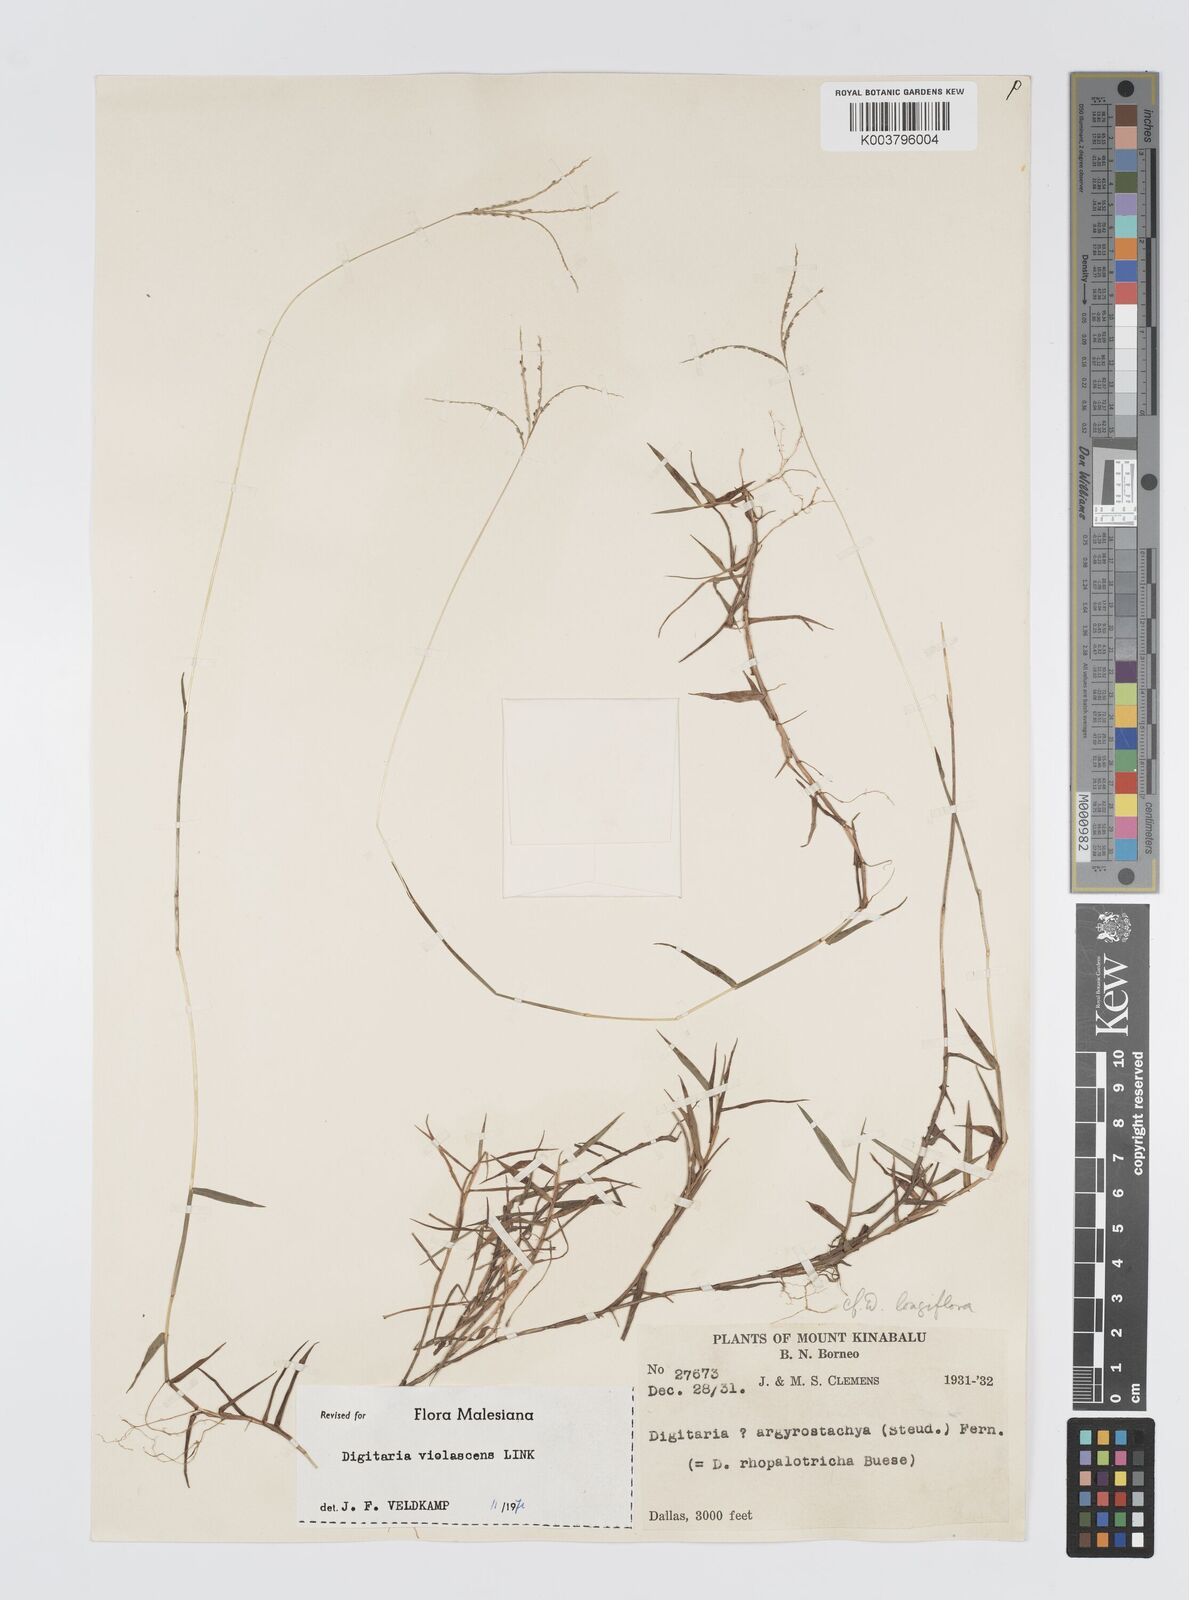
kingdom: Plantae
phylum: Tracheophyta
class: Liliopsida
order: Poales
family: Poaceae
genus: Digitaria
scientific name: Digitaria violascens
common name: Violet crabgrass
